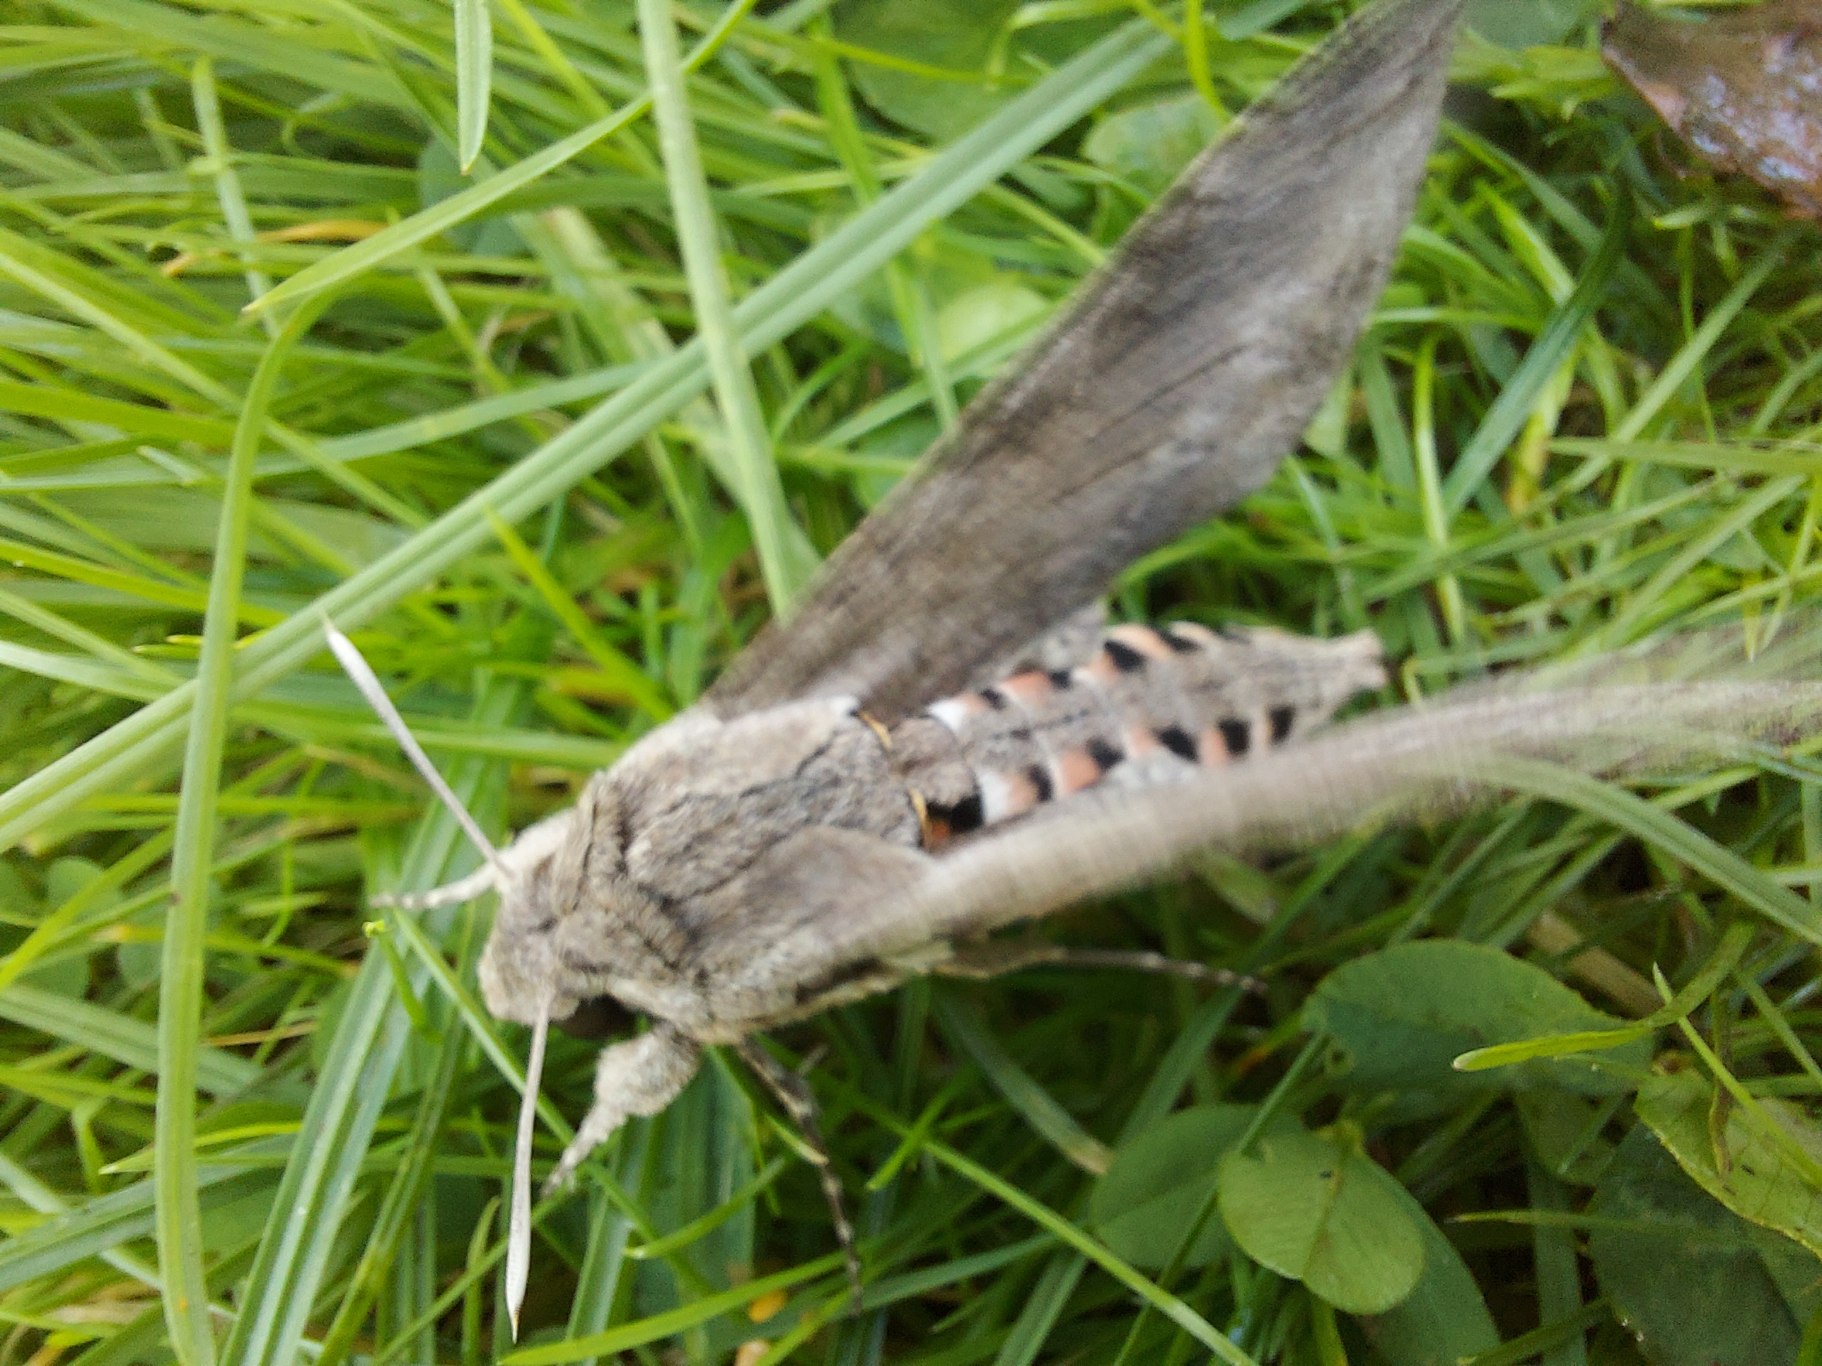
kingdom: Animalia
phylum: Arthropoda
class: Insecta
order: Lepidoptera
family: Sphingidae
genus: Agrius
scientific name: Agrius convolvuli
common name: Snerlesværmer
